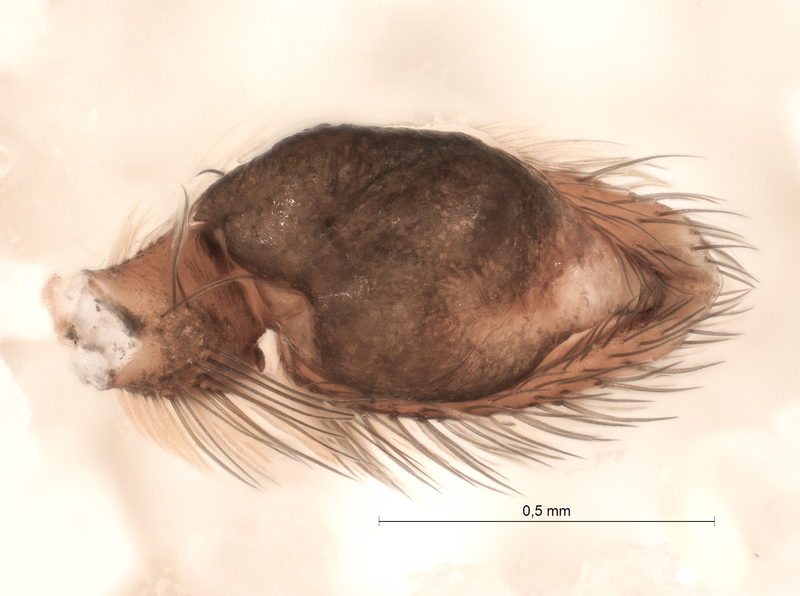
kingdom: Animalia
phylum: Arthropoda
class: Arachnida
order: Araneae
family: Salticidae
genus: Aelurillus
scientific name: Aelurillus v-insignitus
